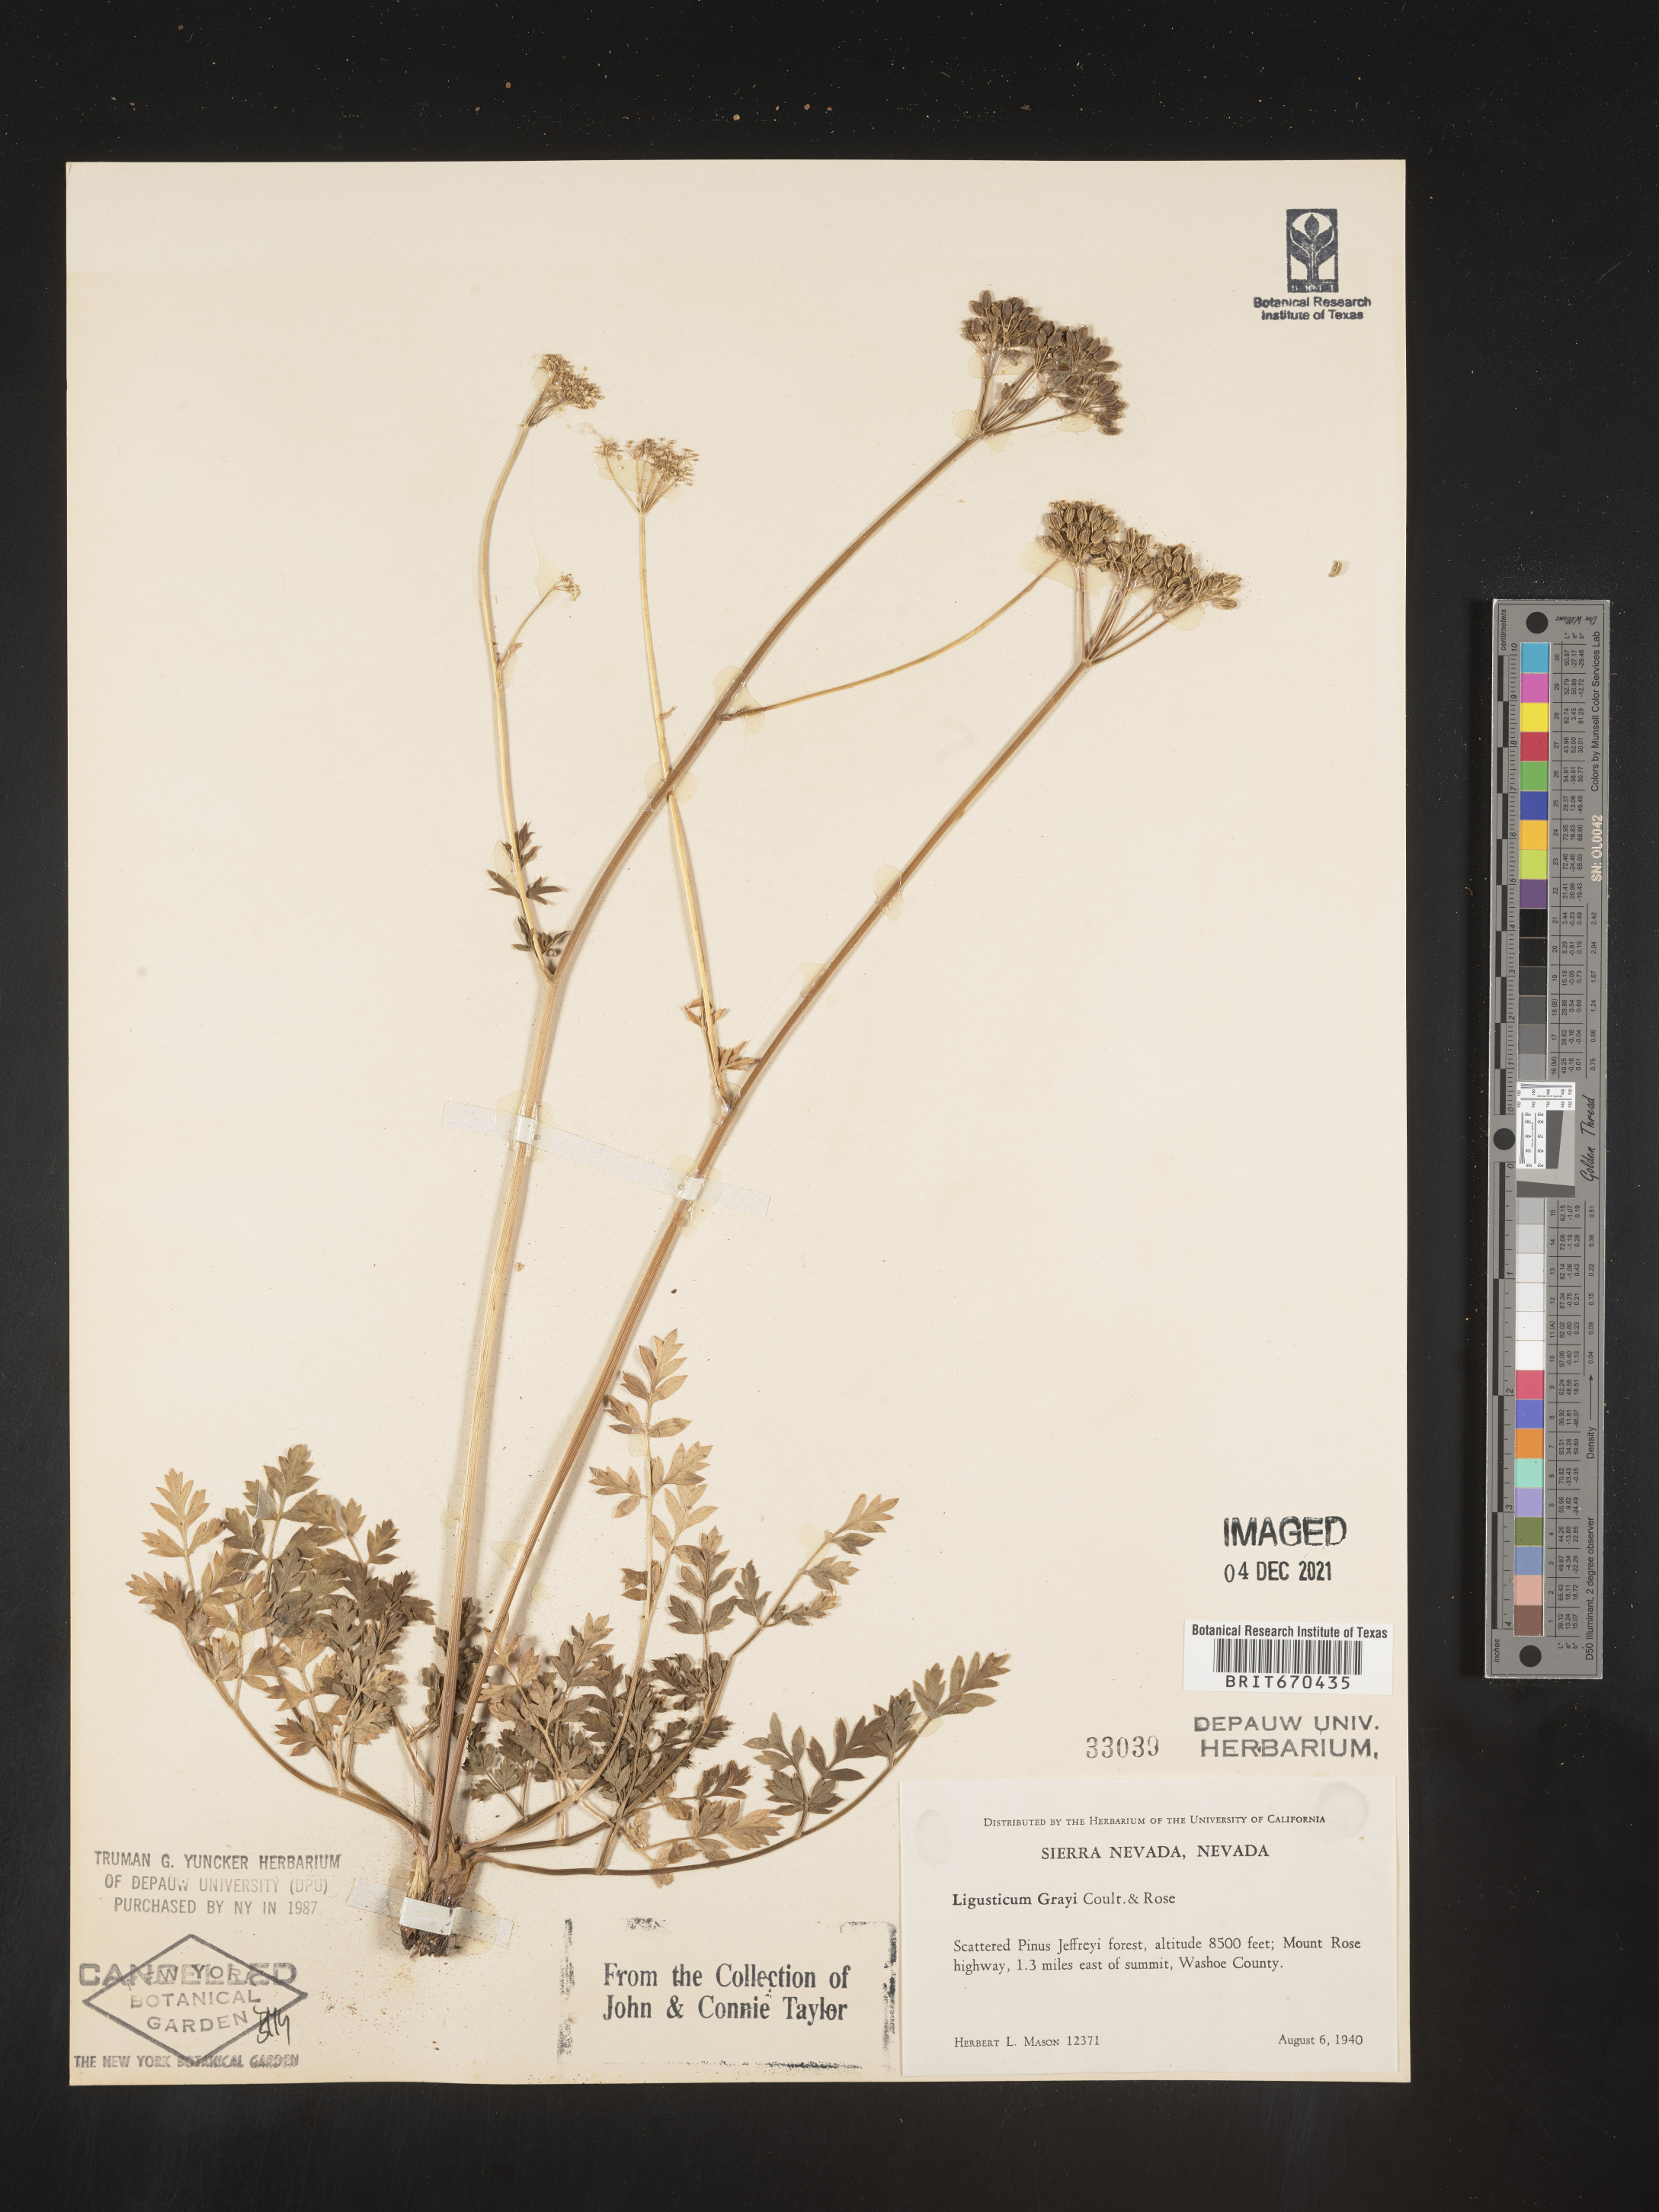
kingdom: Plantae
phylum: Tracheophyta
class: Magnoliopsida
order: Apiales
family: Apiaceae
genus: Ligusticum
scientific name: Ligusticum
